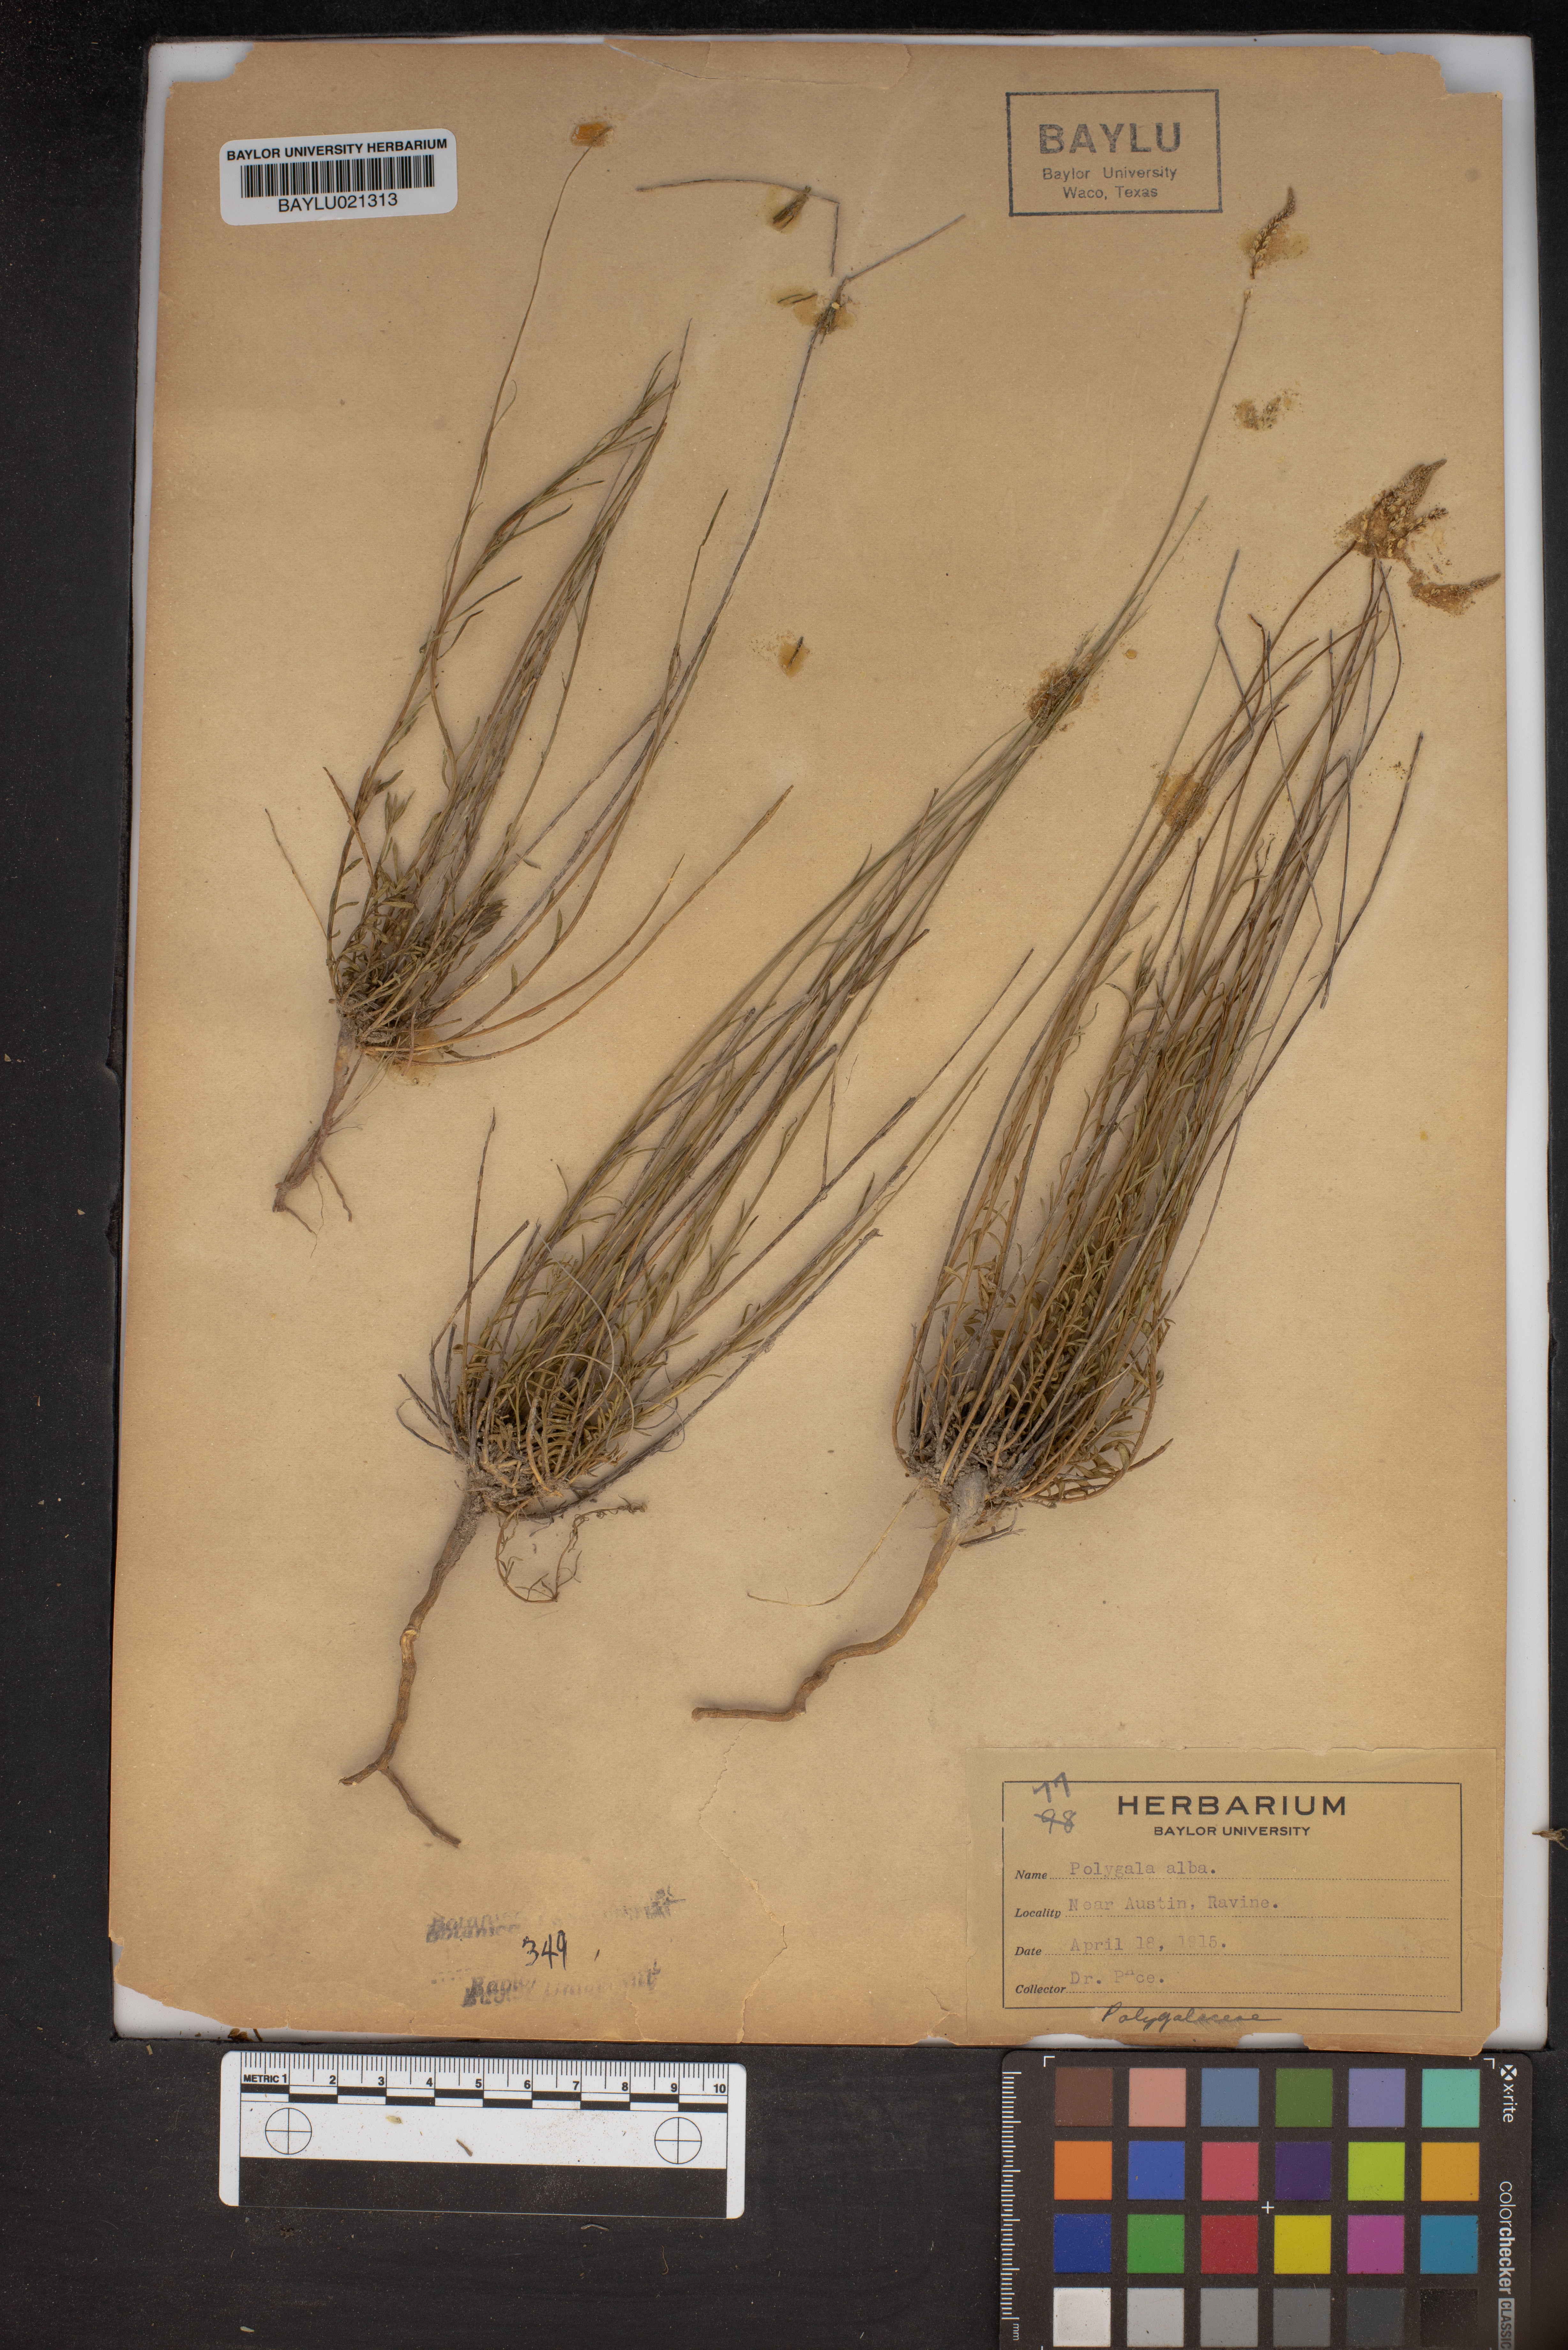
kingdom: Plantae
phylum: Tracheophyta
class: Magnoliopsida
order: Fabales
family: Polygalaceae
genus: Polygala
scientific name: Polygala alba
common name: White milkwort
